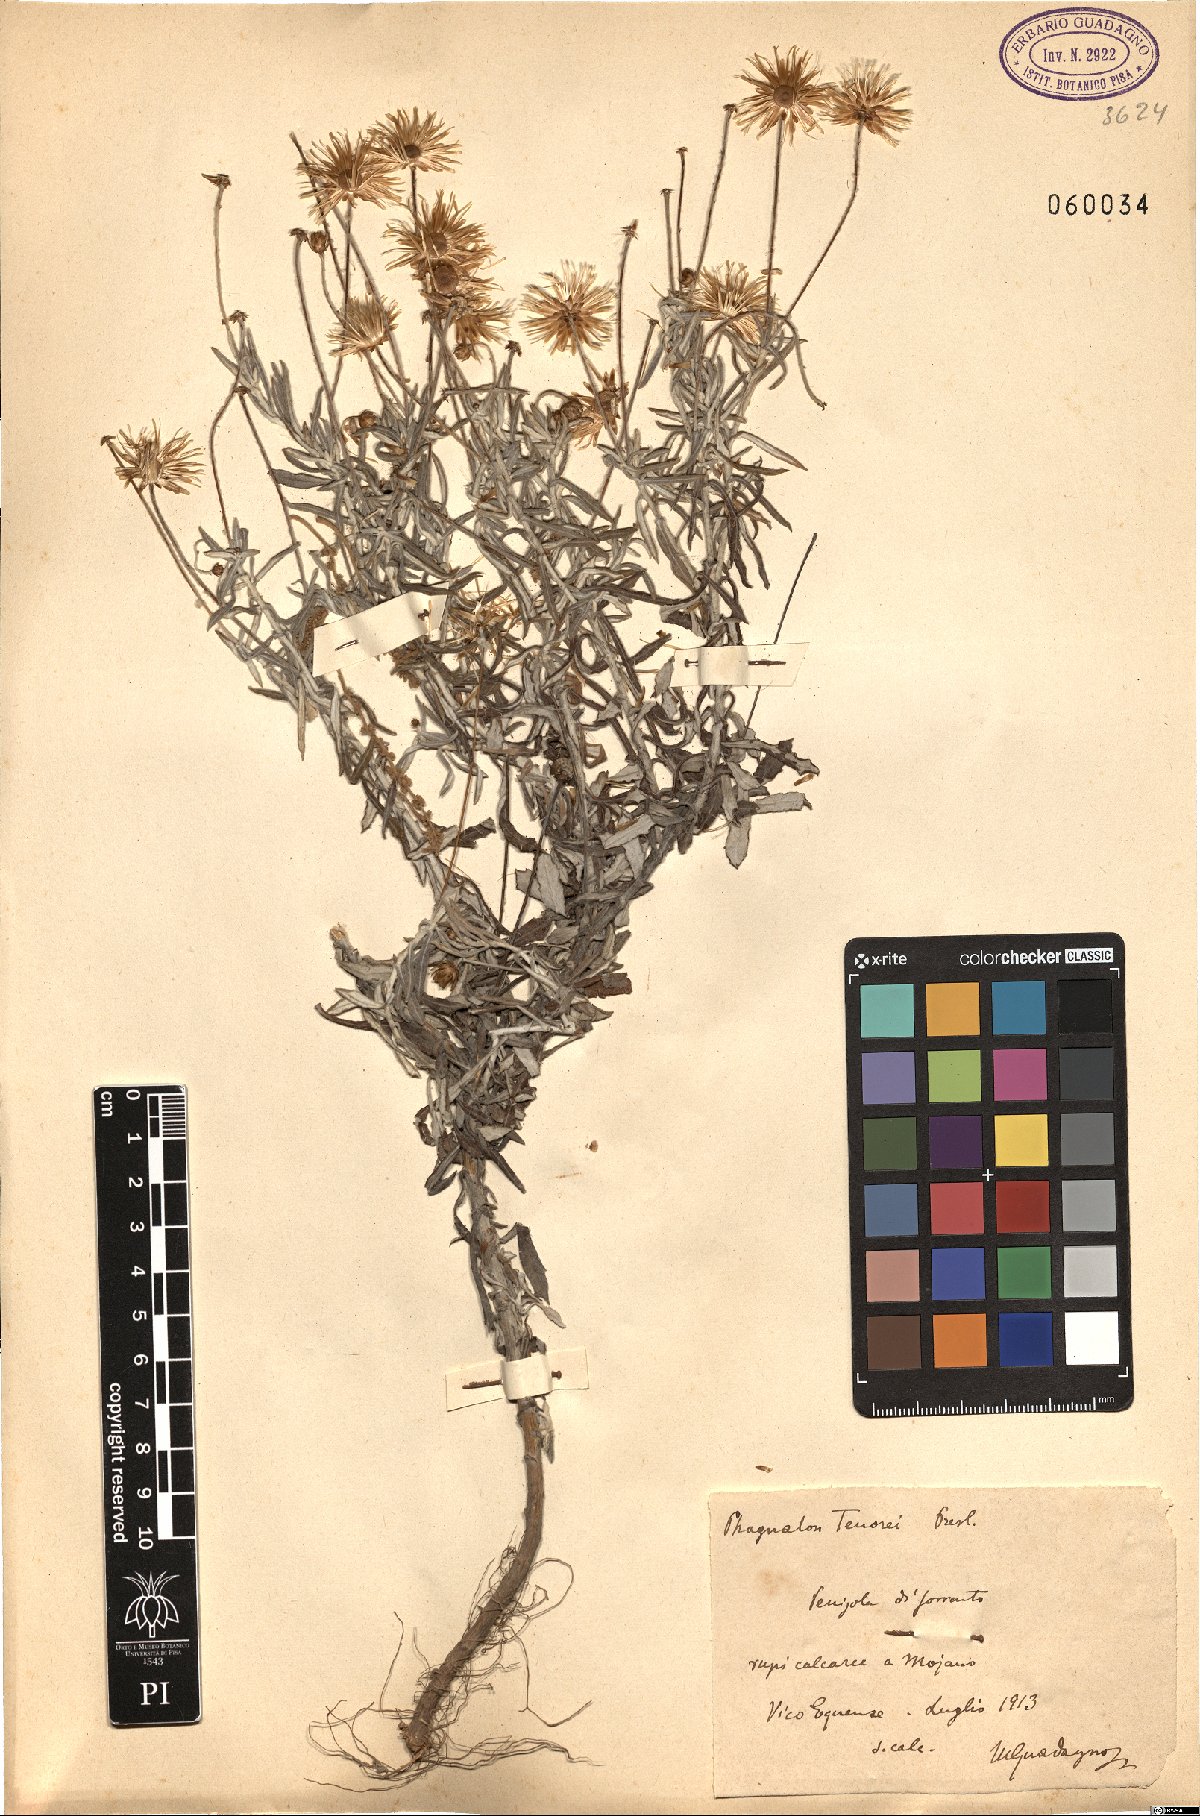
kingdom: Plantae
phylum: Tracheophyta
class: Magnoliopsida
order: Asterales
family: Asteraceae
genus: Phagnalon
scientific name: Phagnalon graecum
